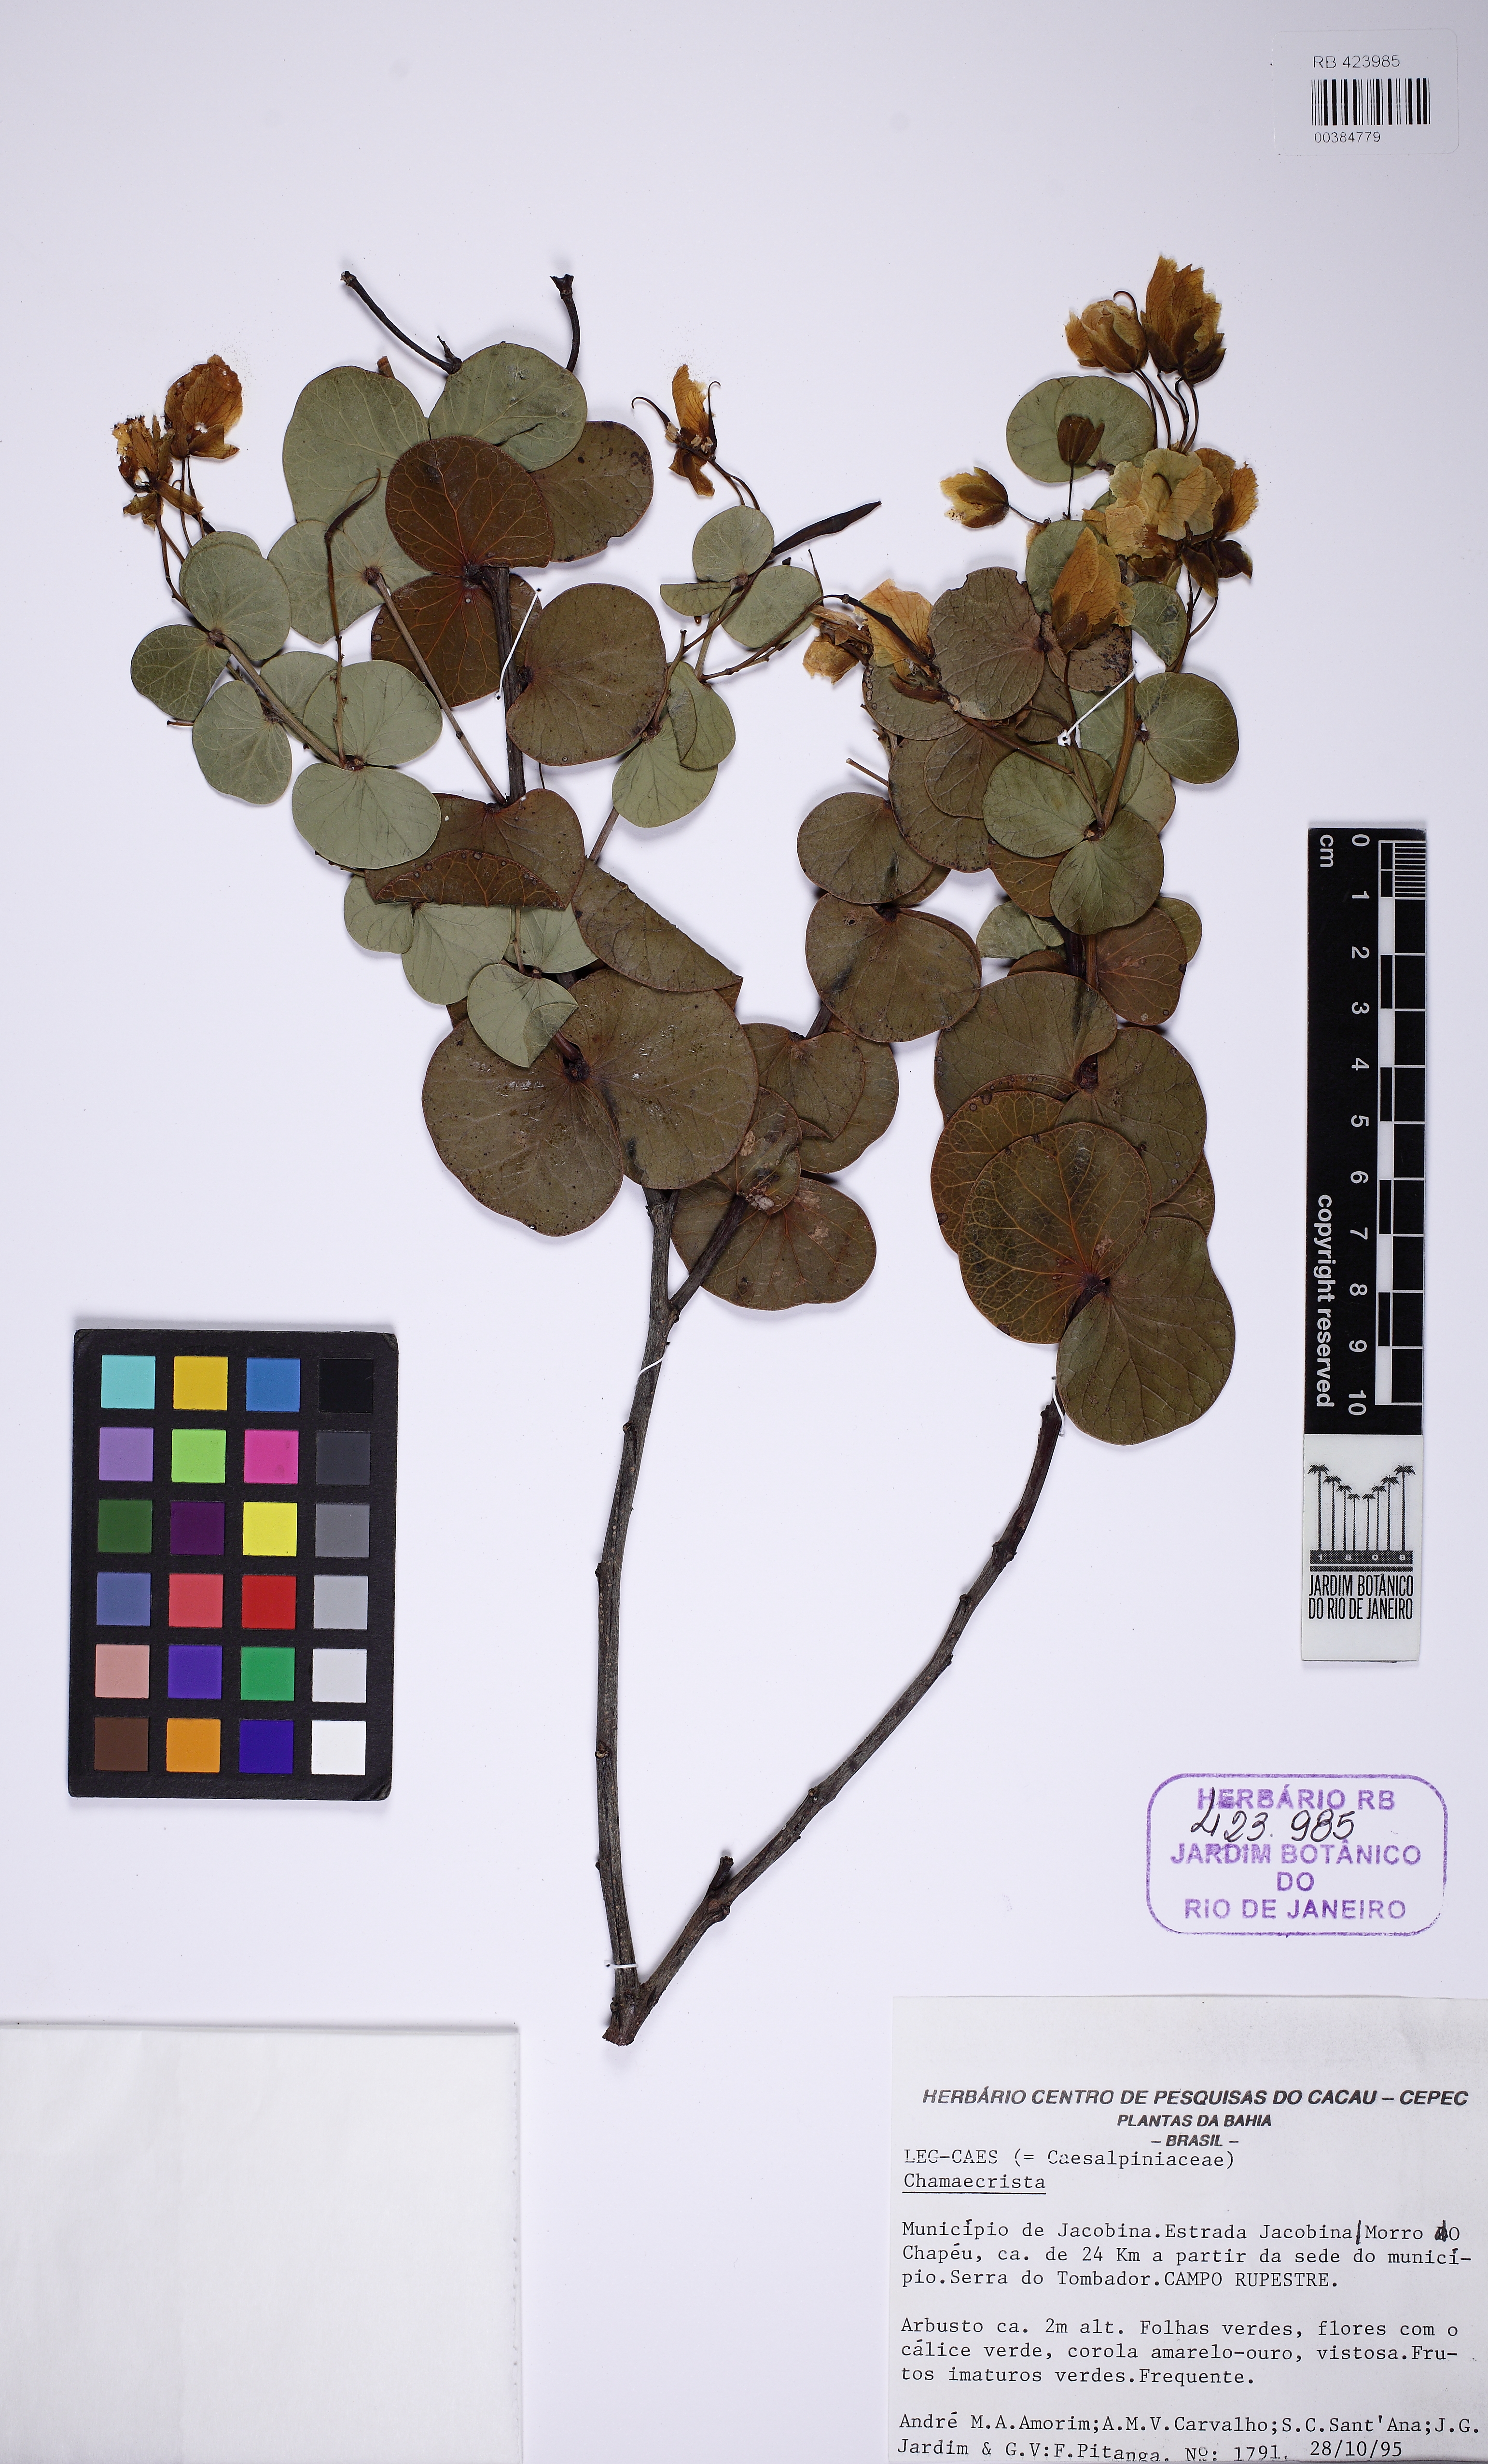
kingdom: Plantae
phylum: Tracheophyta
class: Magnoliopsida
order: Fabales
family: Fabaceae
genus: Chamaecrista
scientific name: Chamaecrista
